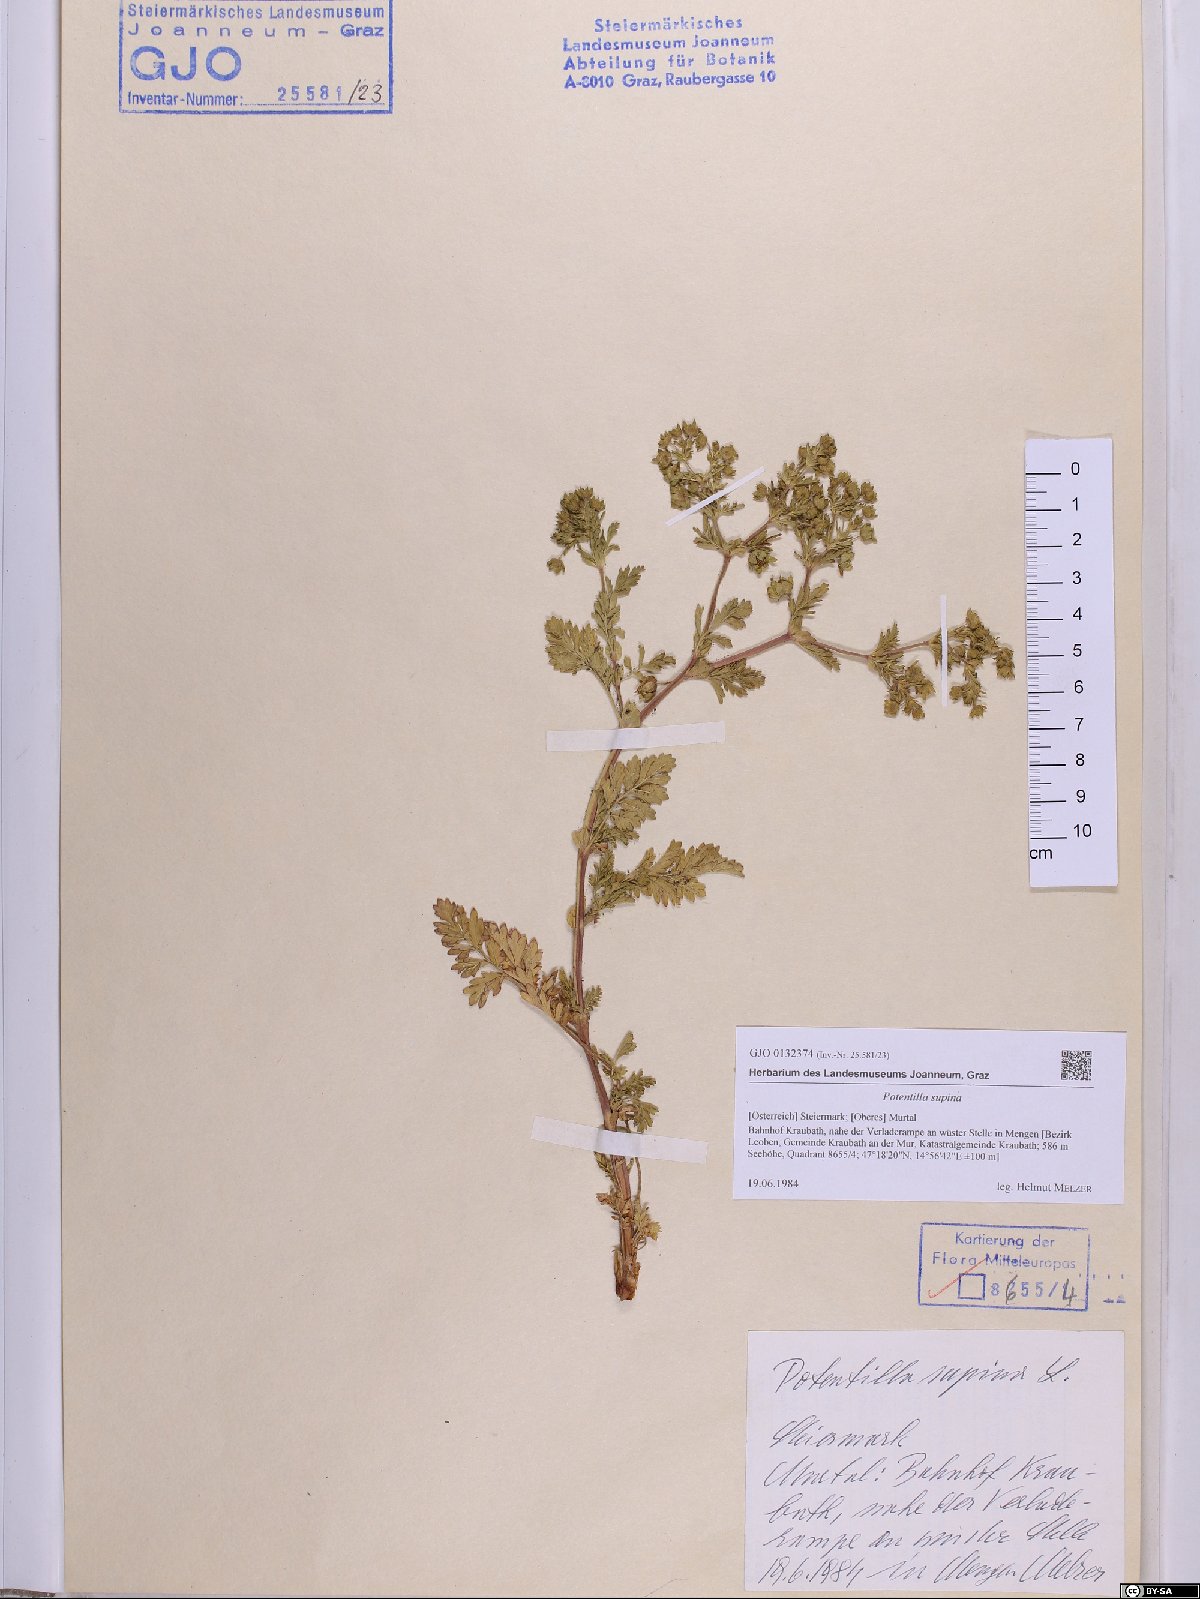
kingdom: Plantae
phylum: Tracheophyta
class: Magnoliopsida
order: Rosales
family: Rosaceae
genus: Potentilla
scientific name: Potentilla supina
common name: Prostrate cinquefoil
